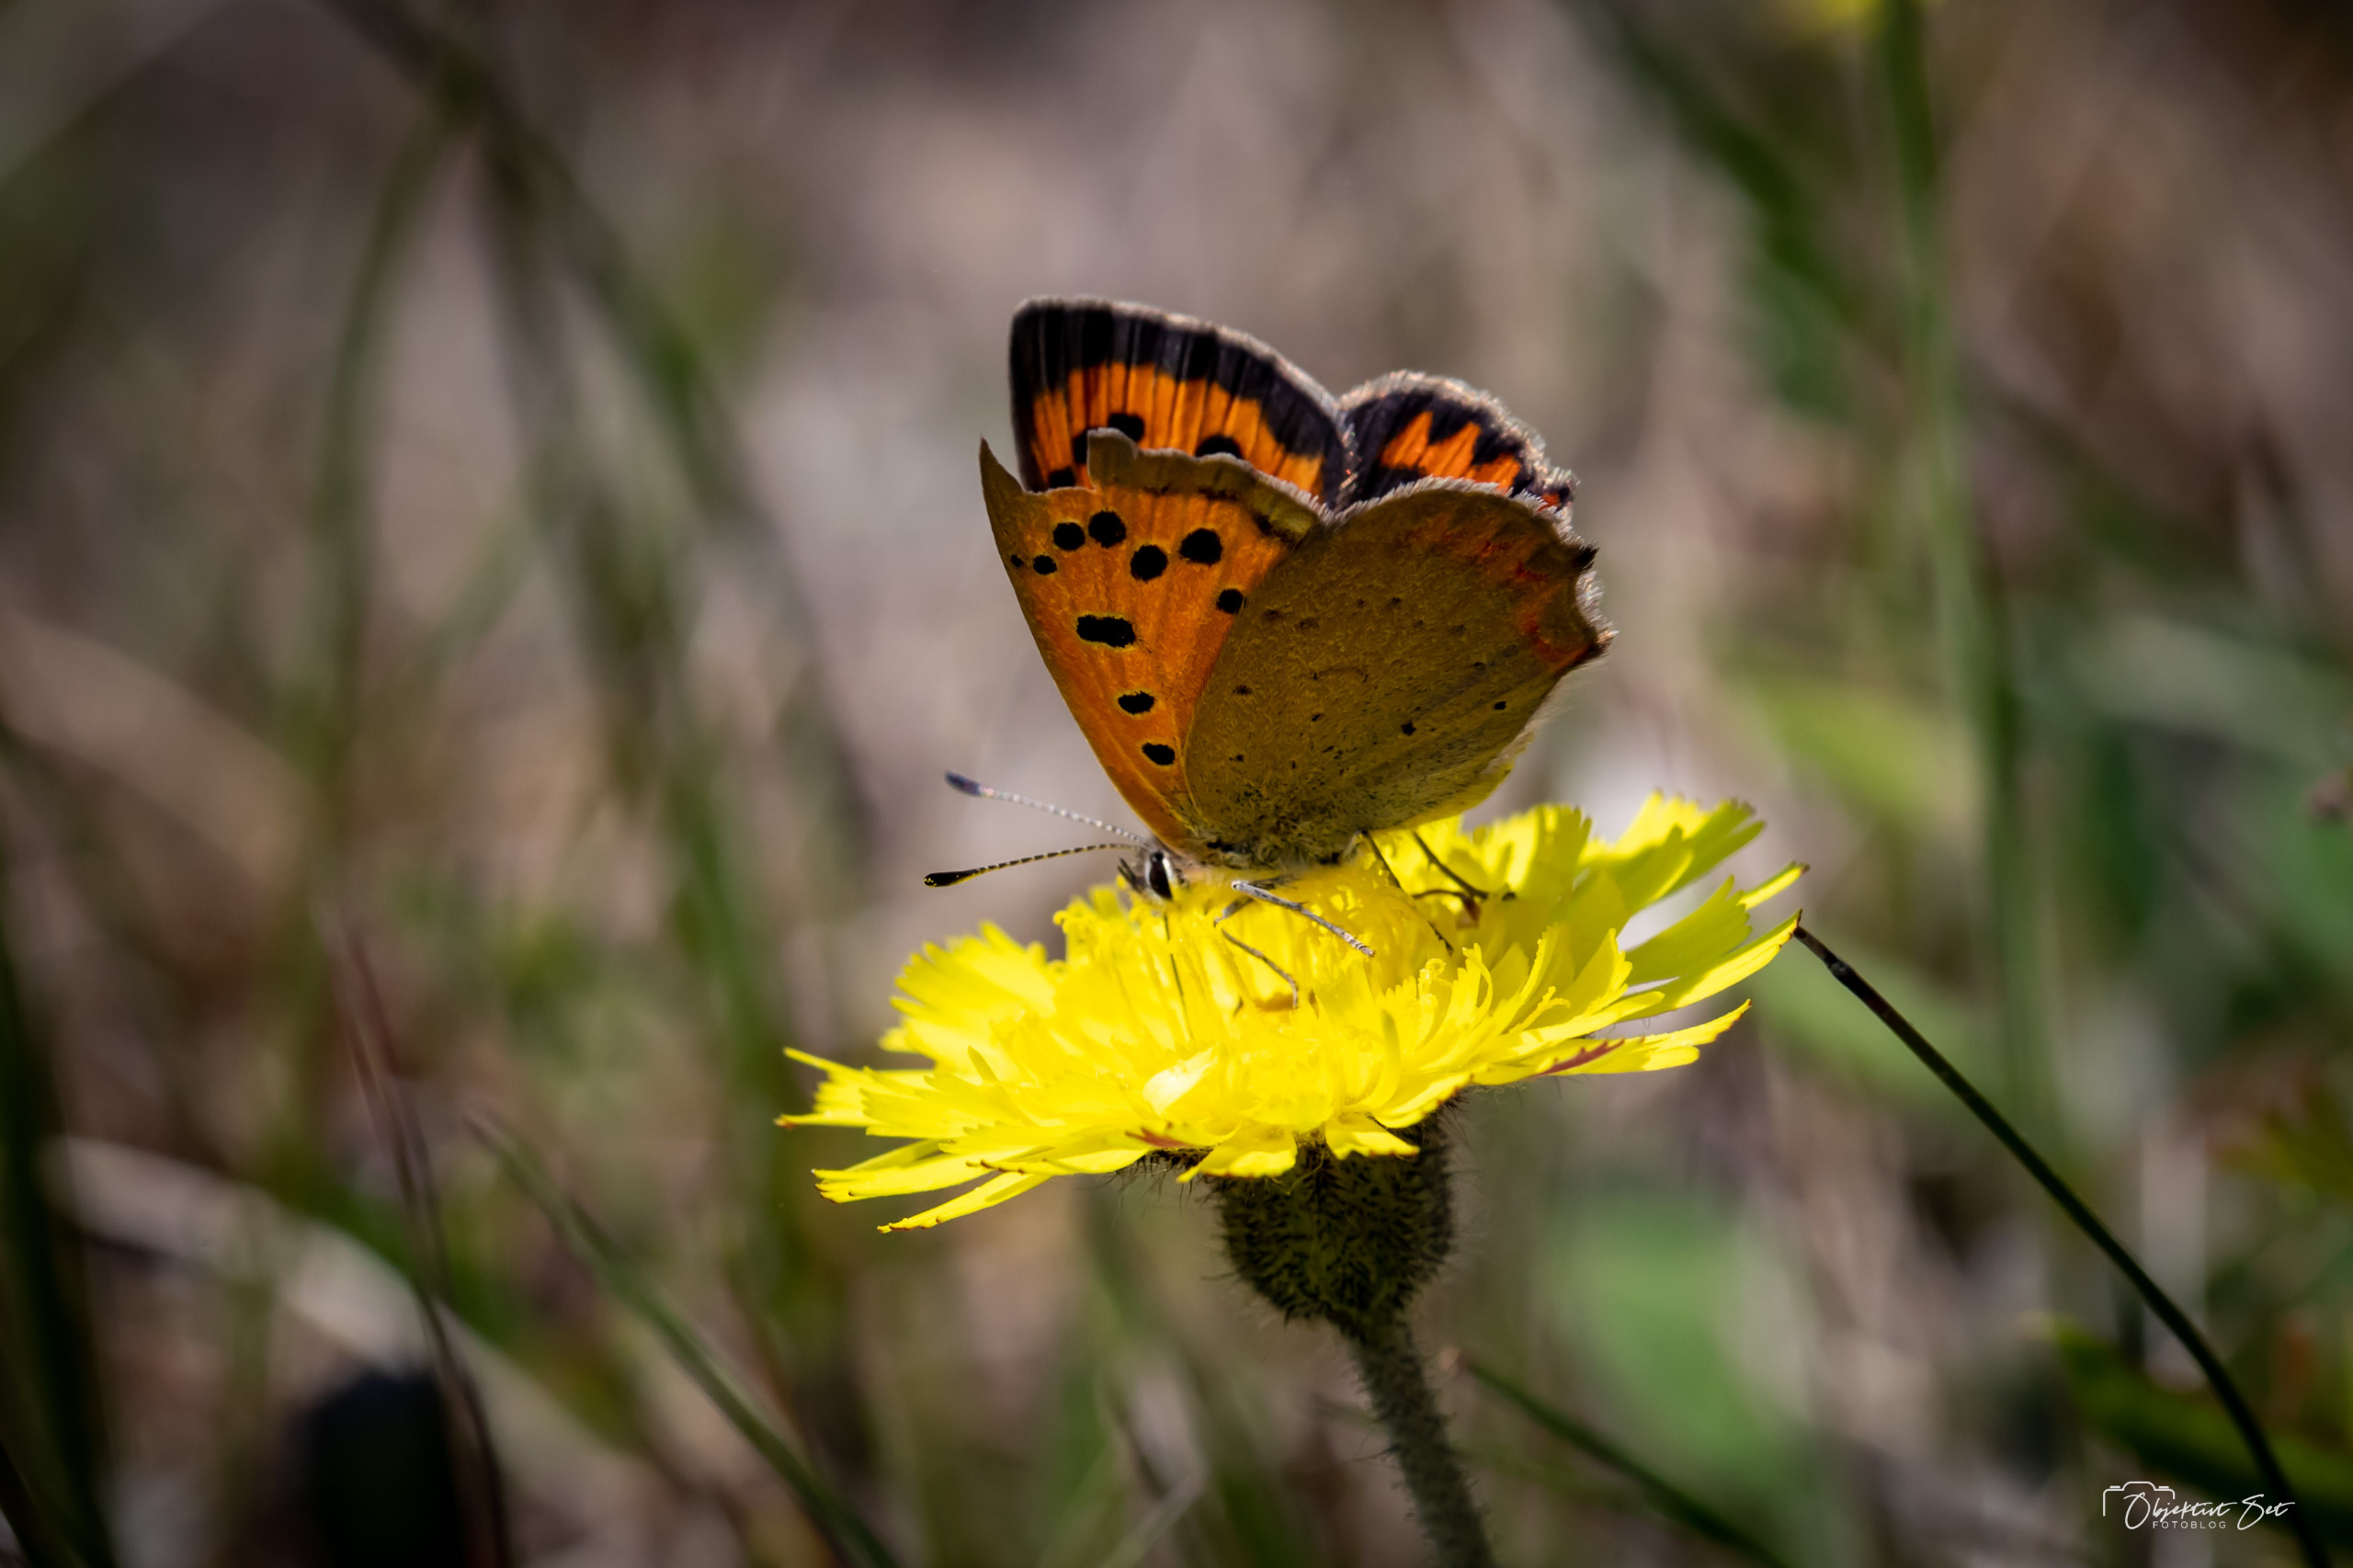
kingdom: Animalia
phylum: Arthropoda
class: Insecta
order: Lepidoptera
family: Lycaenidae
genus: Lycaena
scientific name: Lycaena phlaeas
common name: Lille ildfugl
